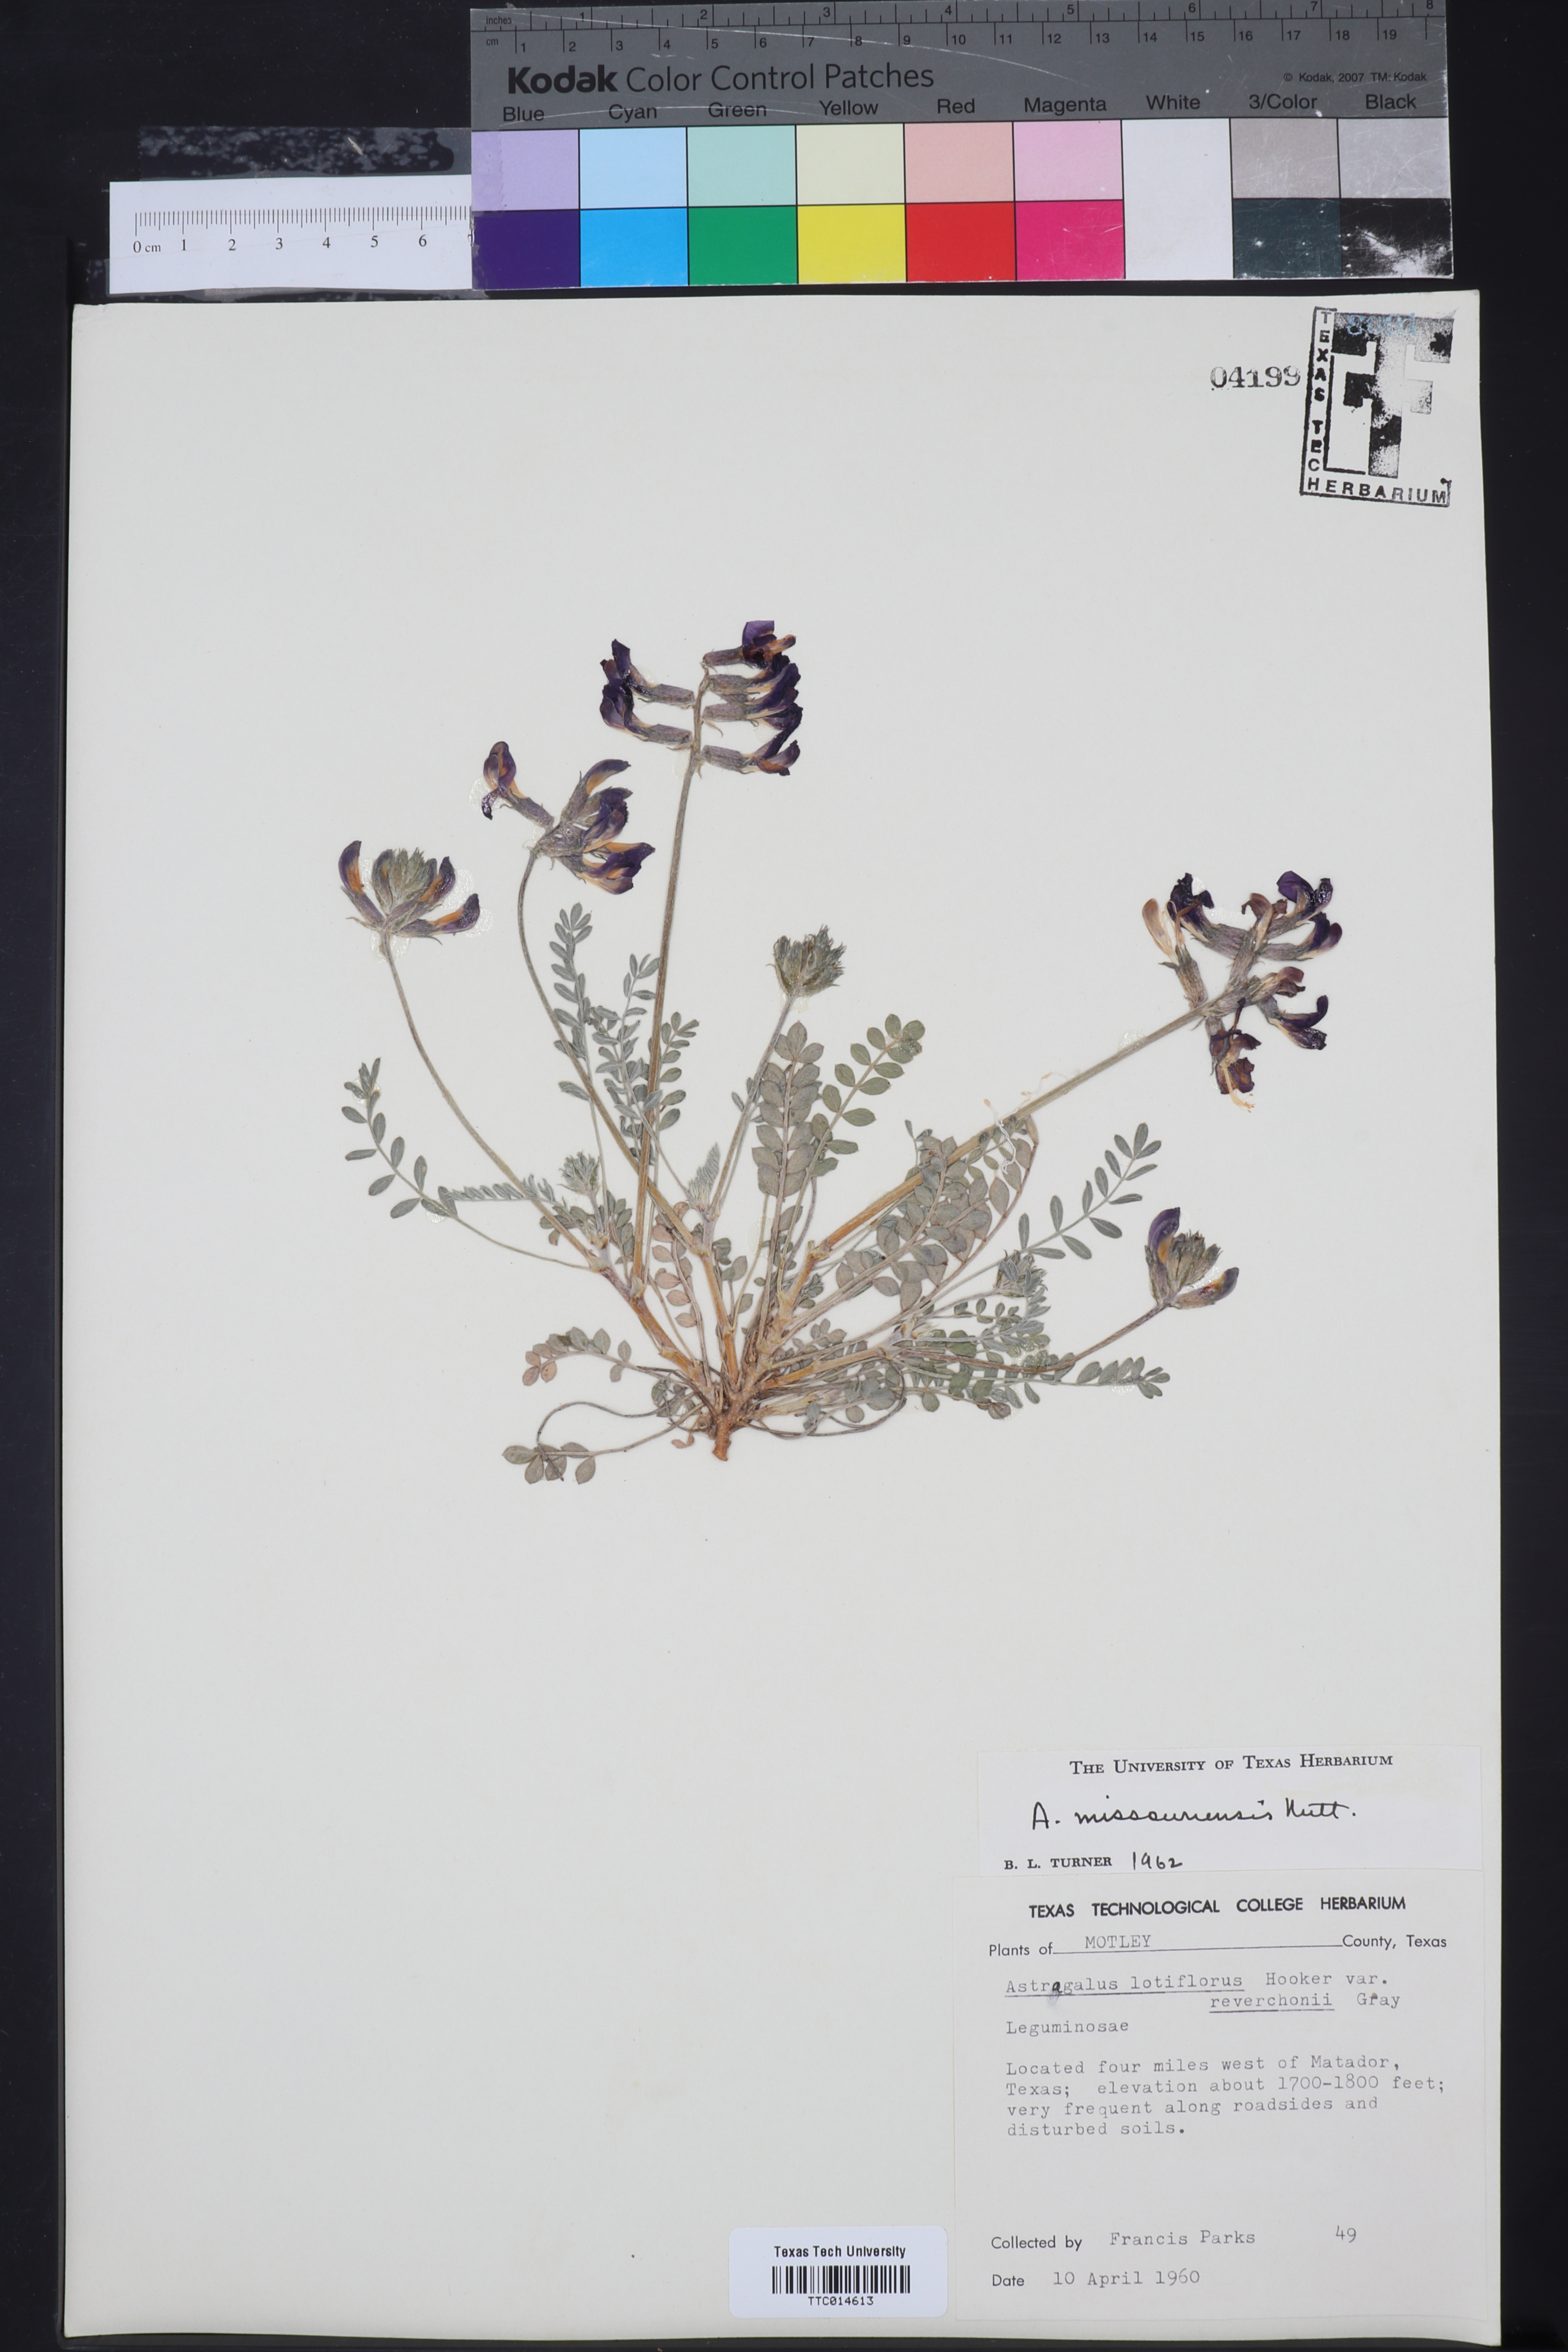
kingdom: Plantae
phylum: Tracheophyta
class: Magnoliopsida
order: Fabales
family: Fabaceae
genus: Astragalus
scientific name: Astragalus missouriensis
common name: Missouri milk-vetch
